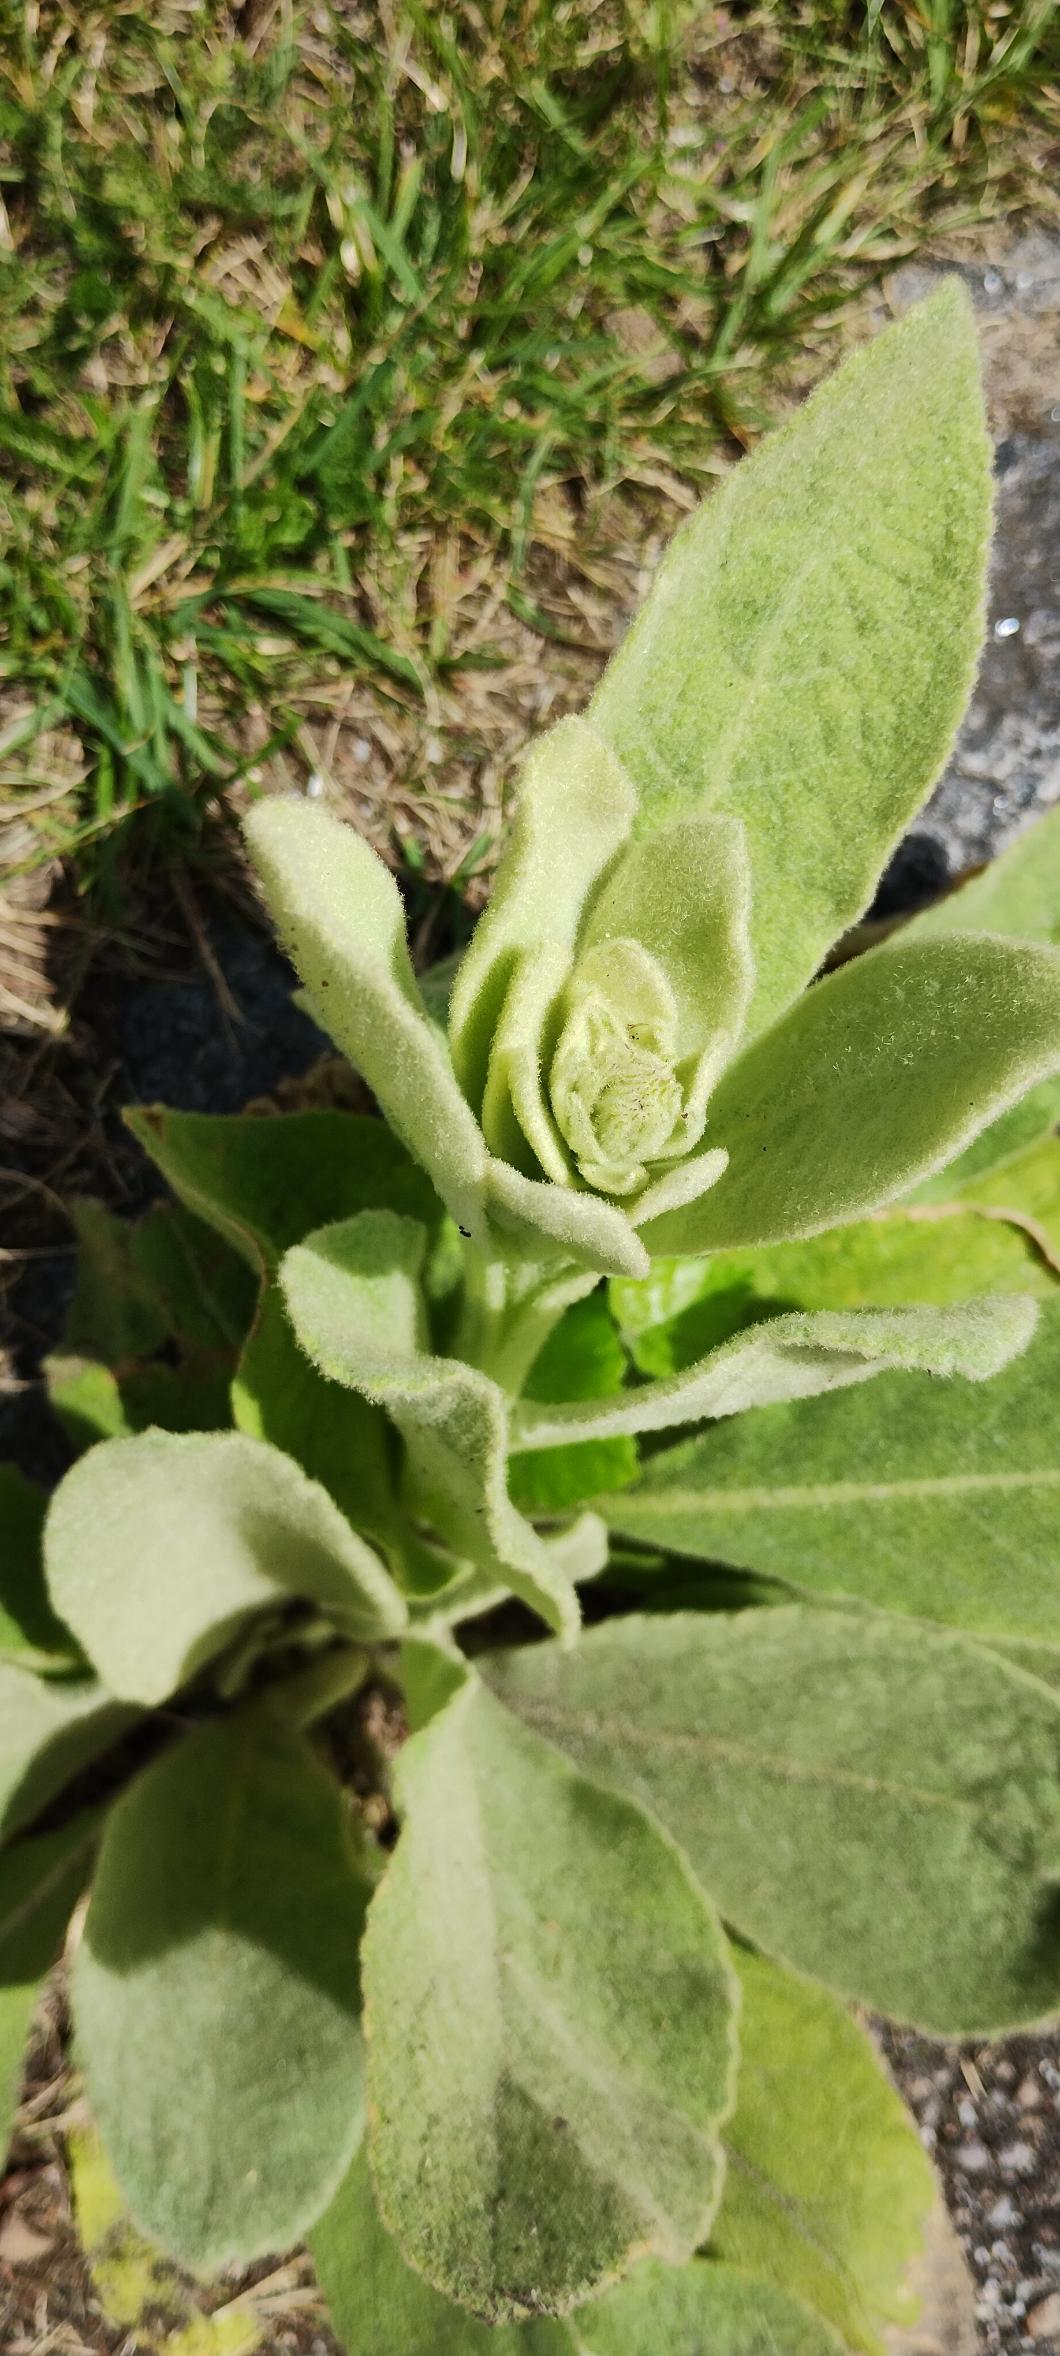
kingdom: Plantae
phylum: Tracheophyta
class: Magnoliopsida
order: Lamiales
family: Scrophulariaceae
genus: Verbascum
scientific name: Verbascum thapsus
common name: Filtbladet kongelys
